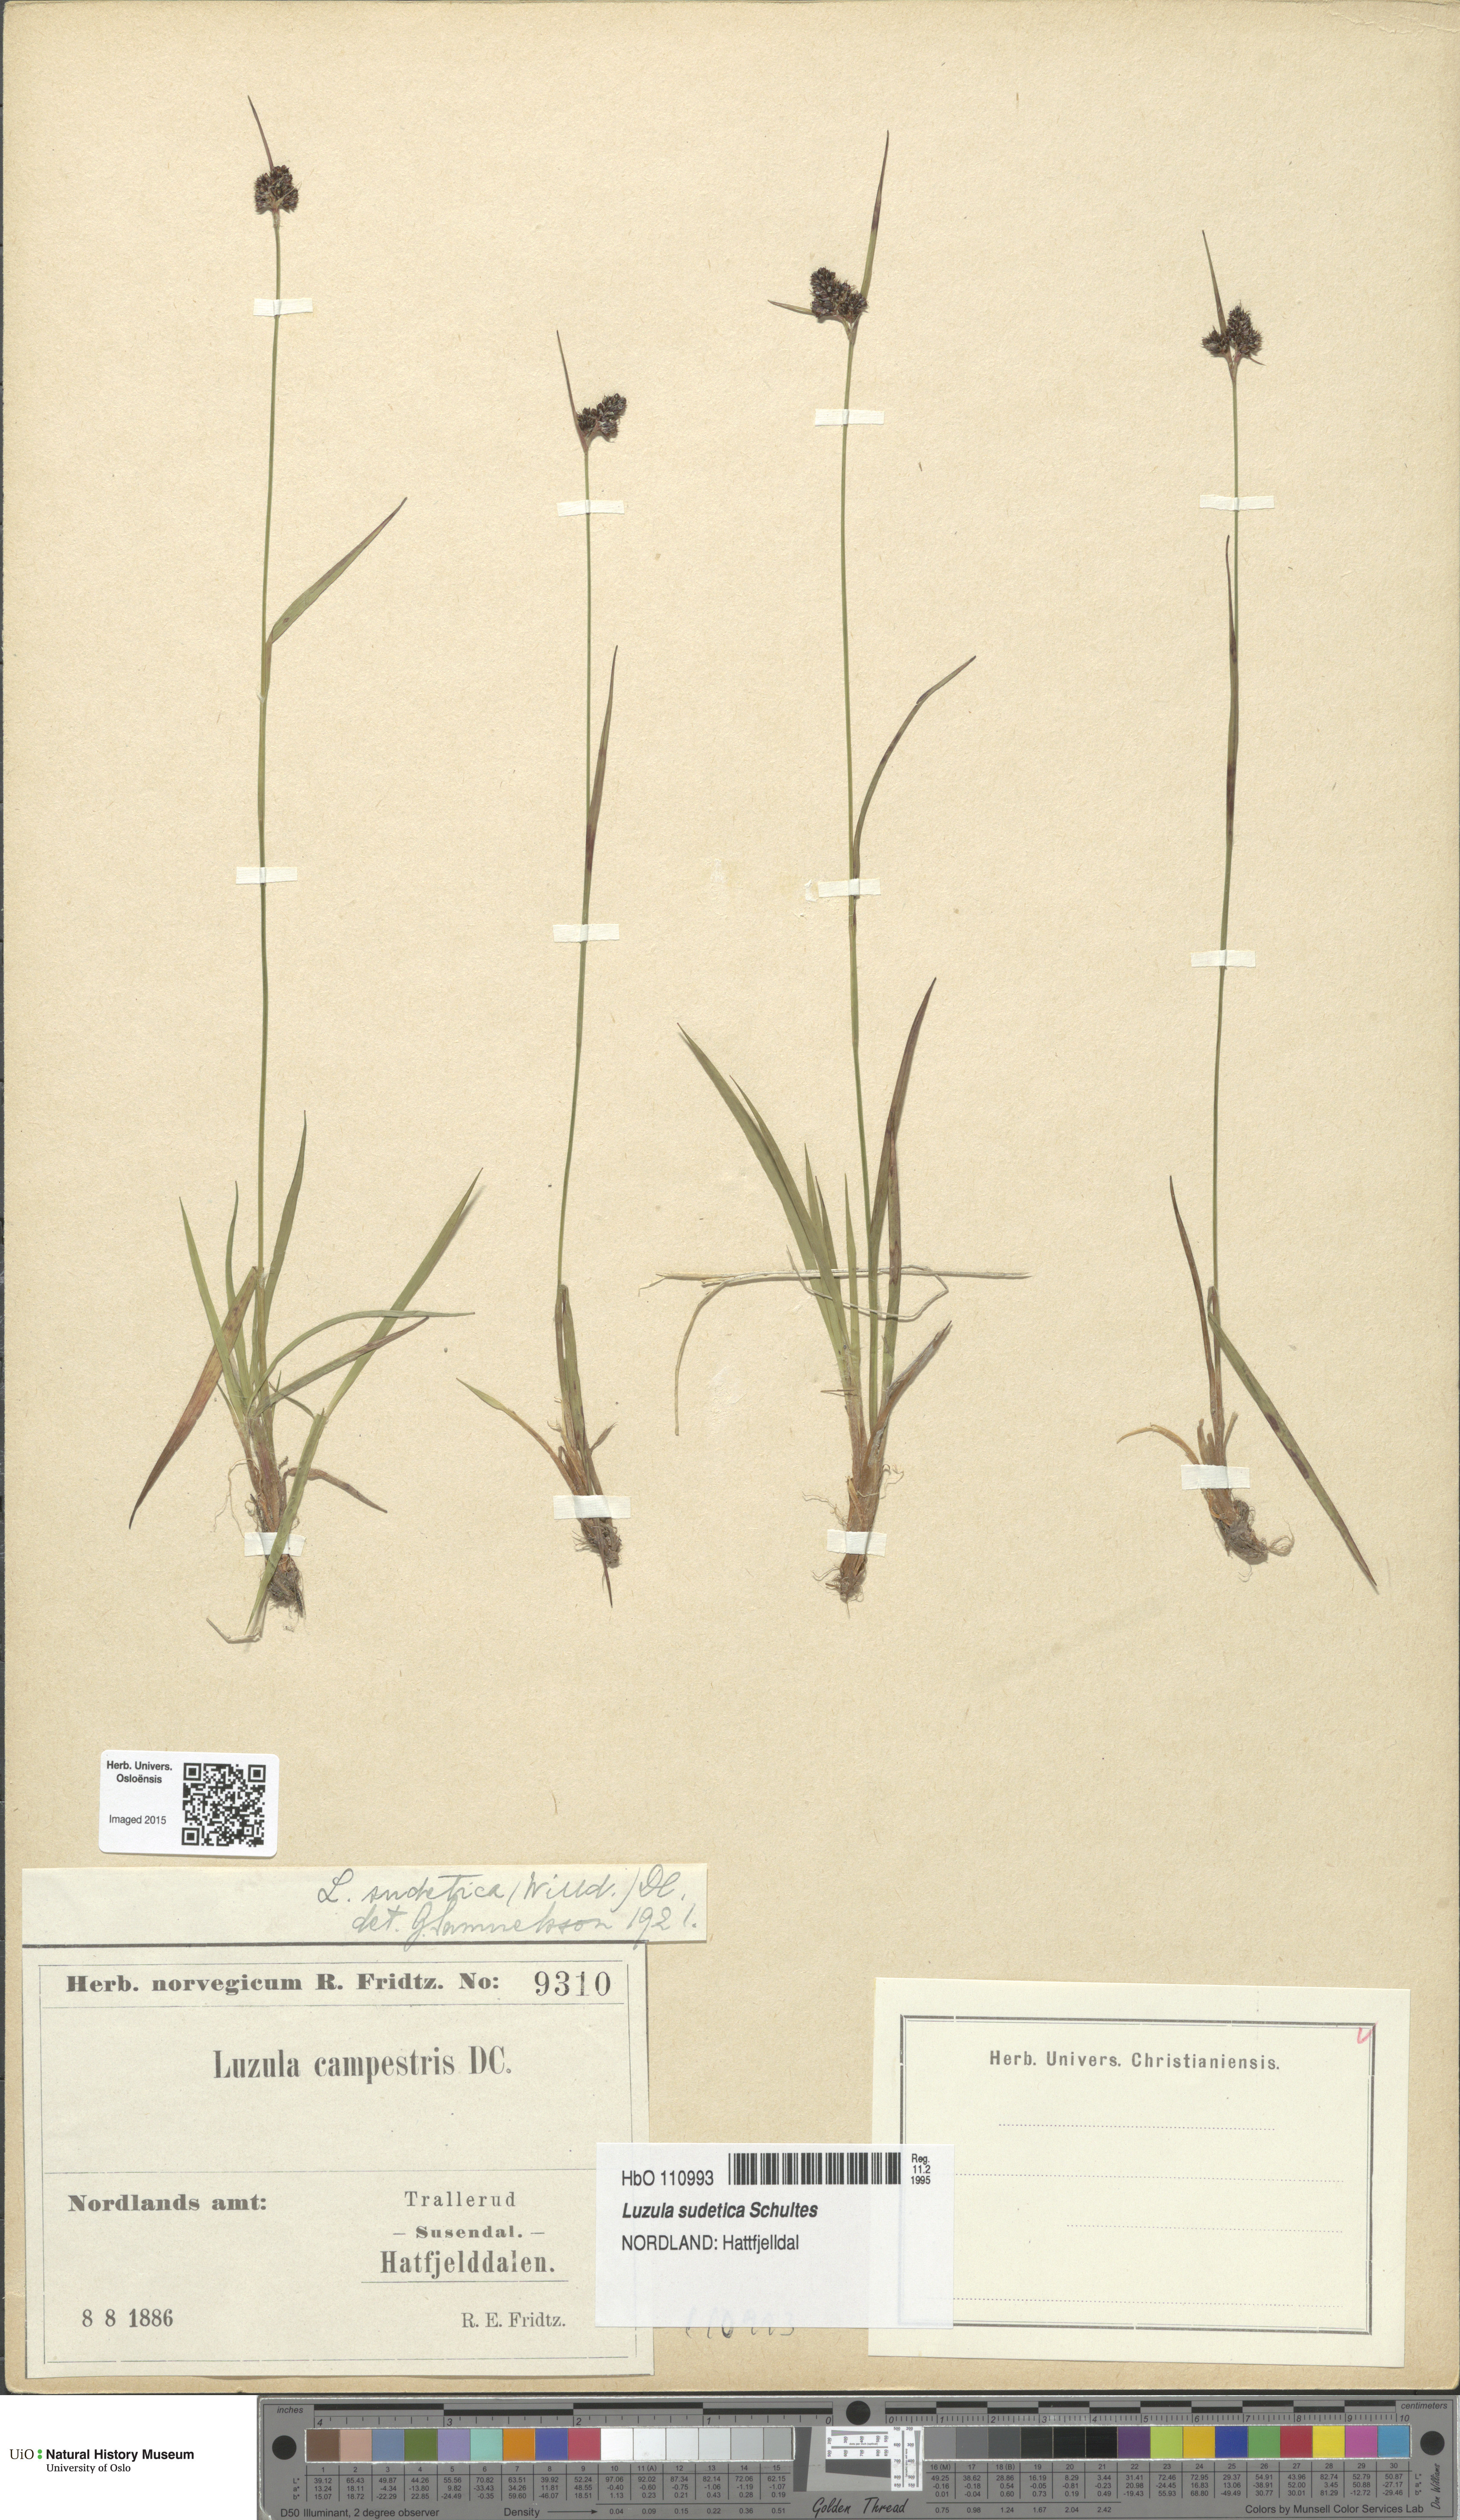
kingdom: Plantae
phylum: Tracheophyta
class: Liliopsida
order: Poales
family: Juncaceae
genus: Luzula
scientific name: Luzula sudetica
